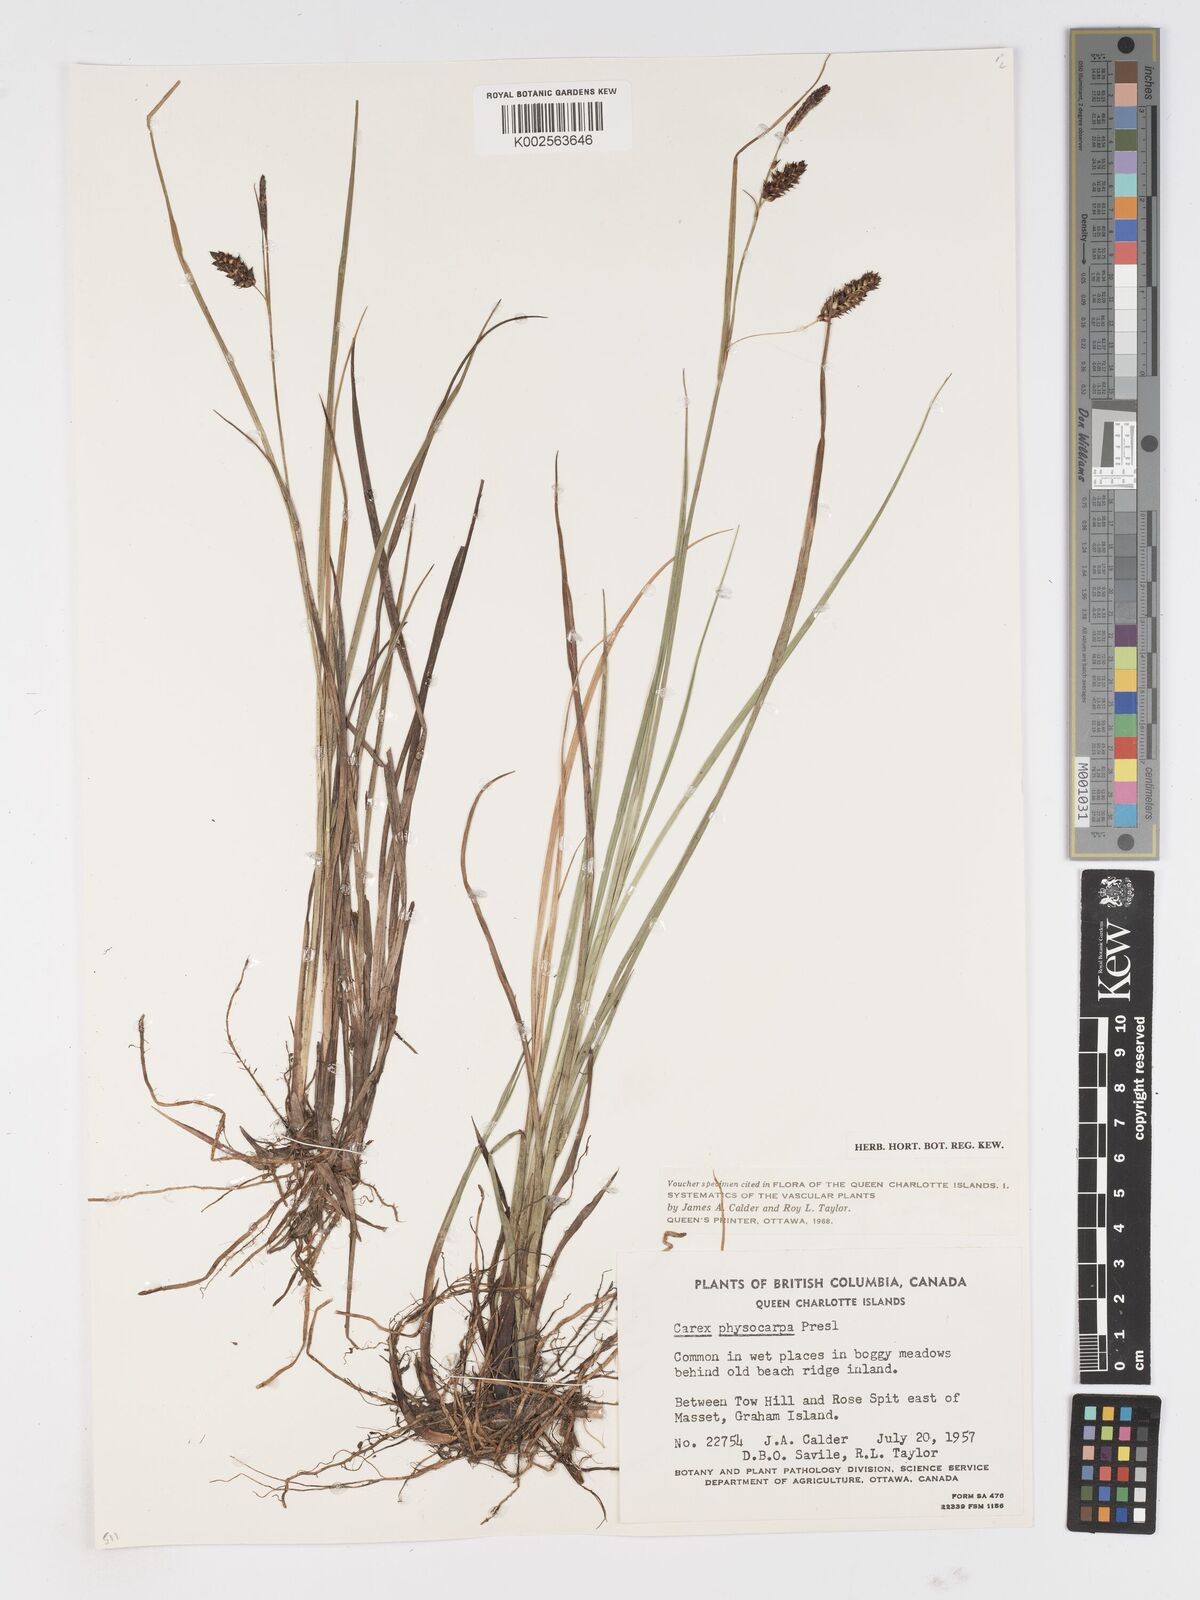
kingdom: Plantae
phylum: Tracheophyta
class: Liliopsida
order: Poales
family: Cyperaceae
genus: Carex
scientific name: Carex saxatilis
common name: Russet sedge
